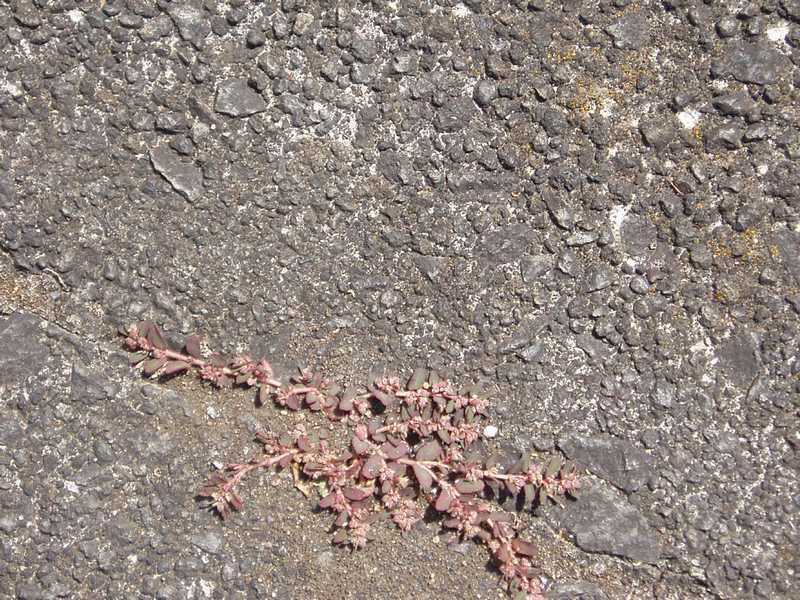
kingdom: Plantae
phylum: Tracheophyta
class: Magnoliopsida
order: Malpighiales
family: Euphorbiaceae
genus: Euphorbia
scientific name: Euphorbia maculata
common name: Spotted spurge
